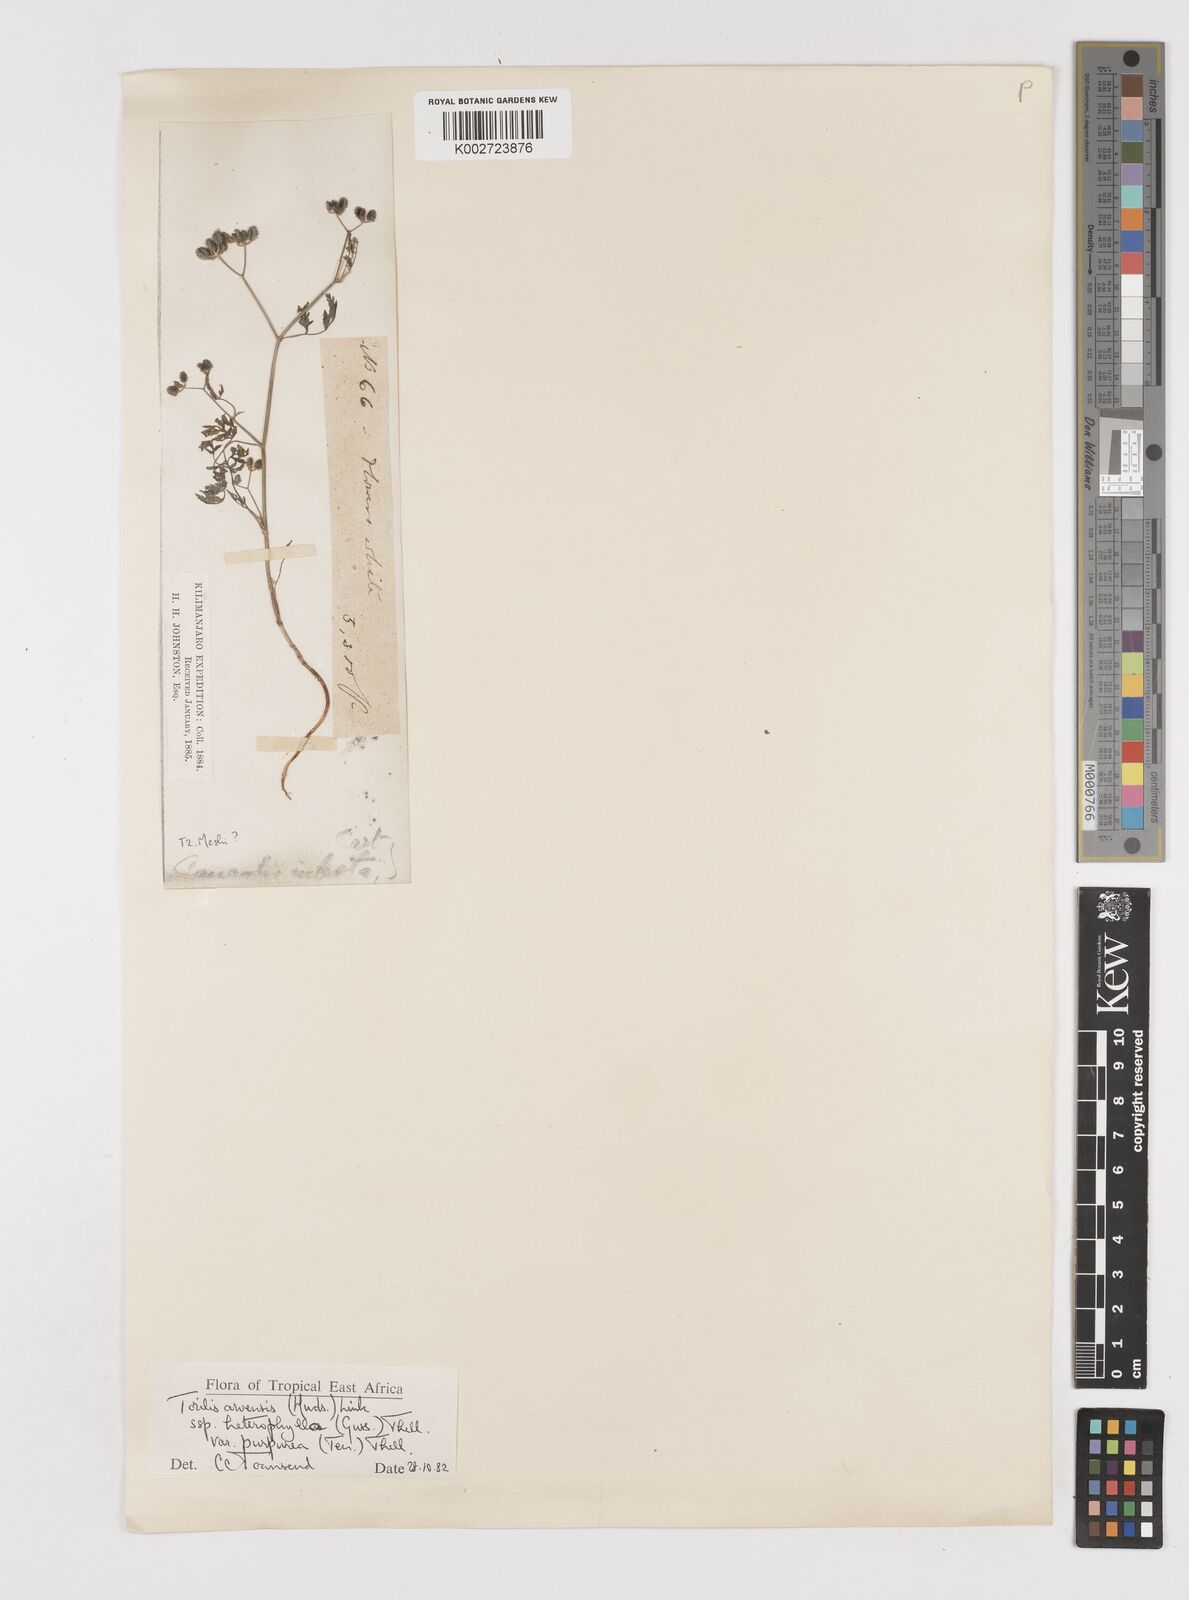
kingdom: Plantae
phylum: Tracheophyta
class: Magnoliopsida
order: Apiales
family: Apiaceae
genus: Torilis
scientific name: Torilis arvensis
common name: Spreading hedge-parsley
